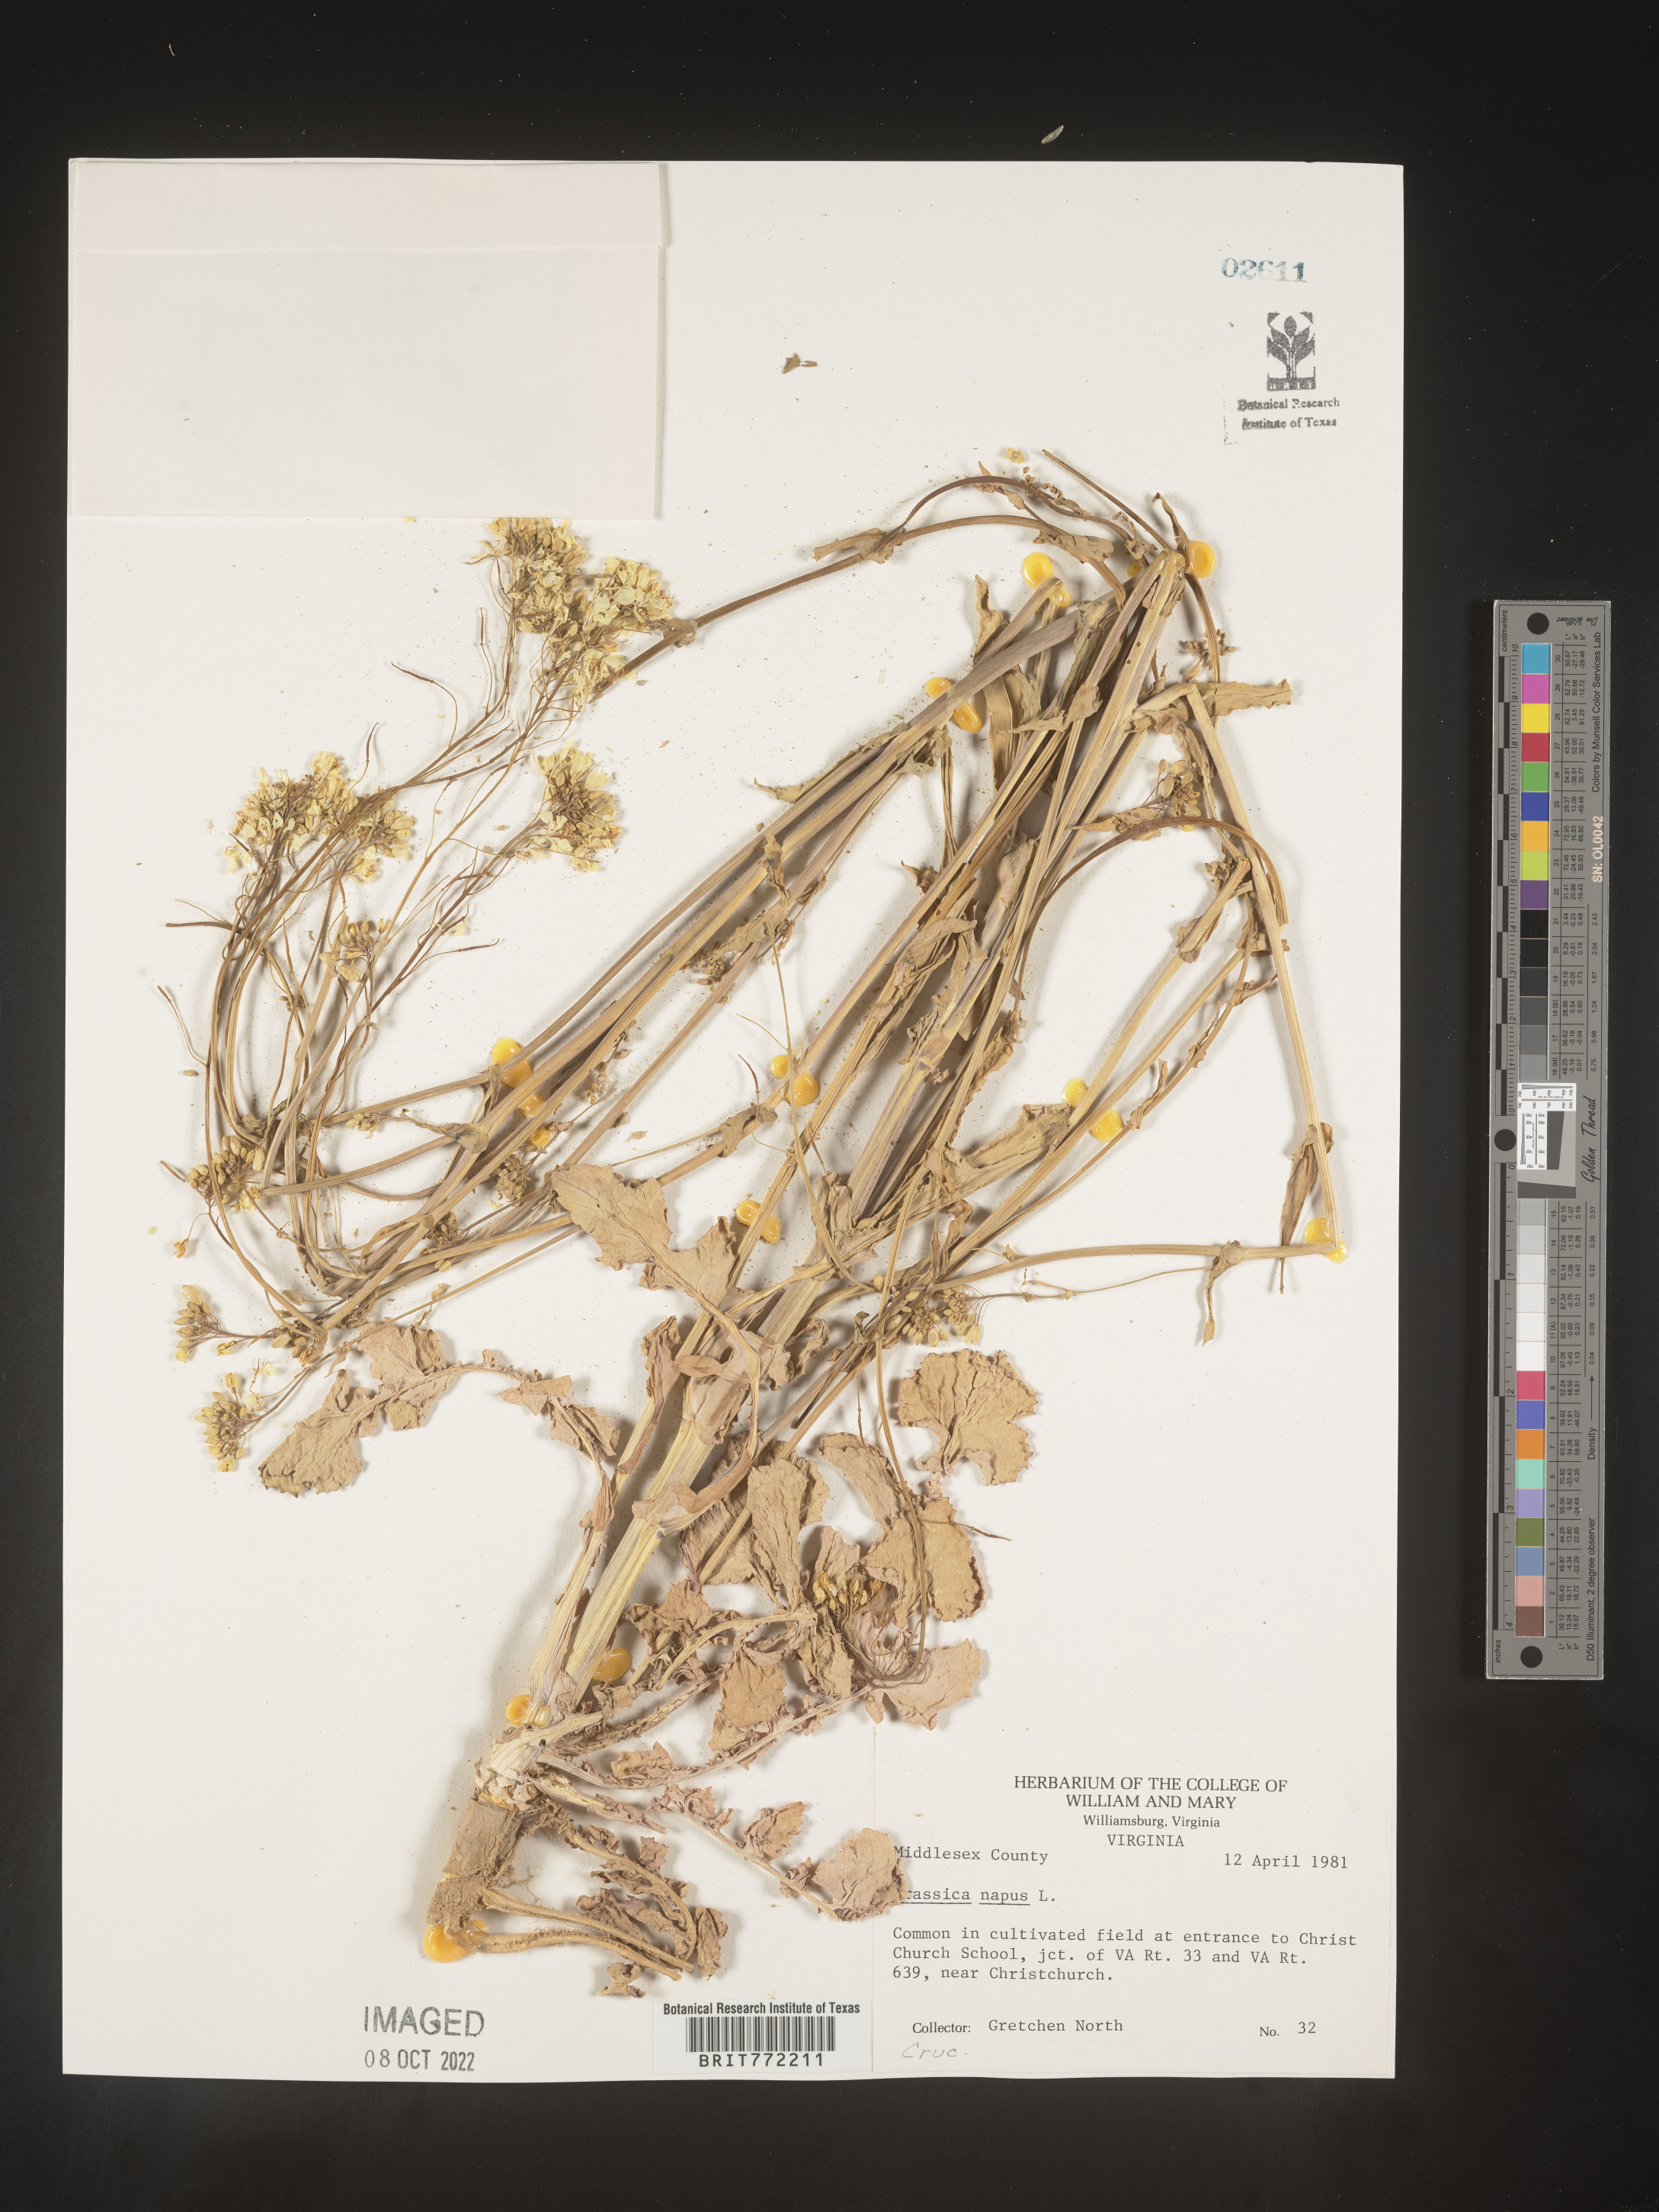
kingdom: Plantae
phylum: Tracheophyta
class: Magnoliopsida
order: Brassicales
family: Brassicaceae
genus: Brassica
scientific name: Brassica napus
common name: Rape
